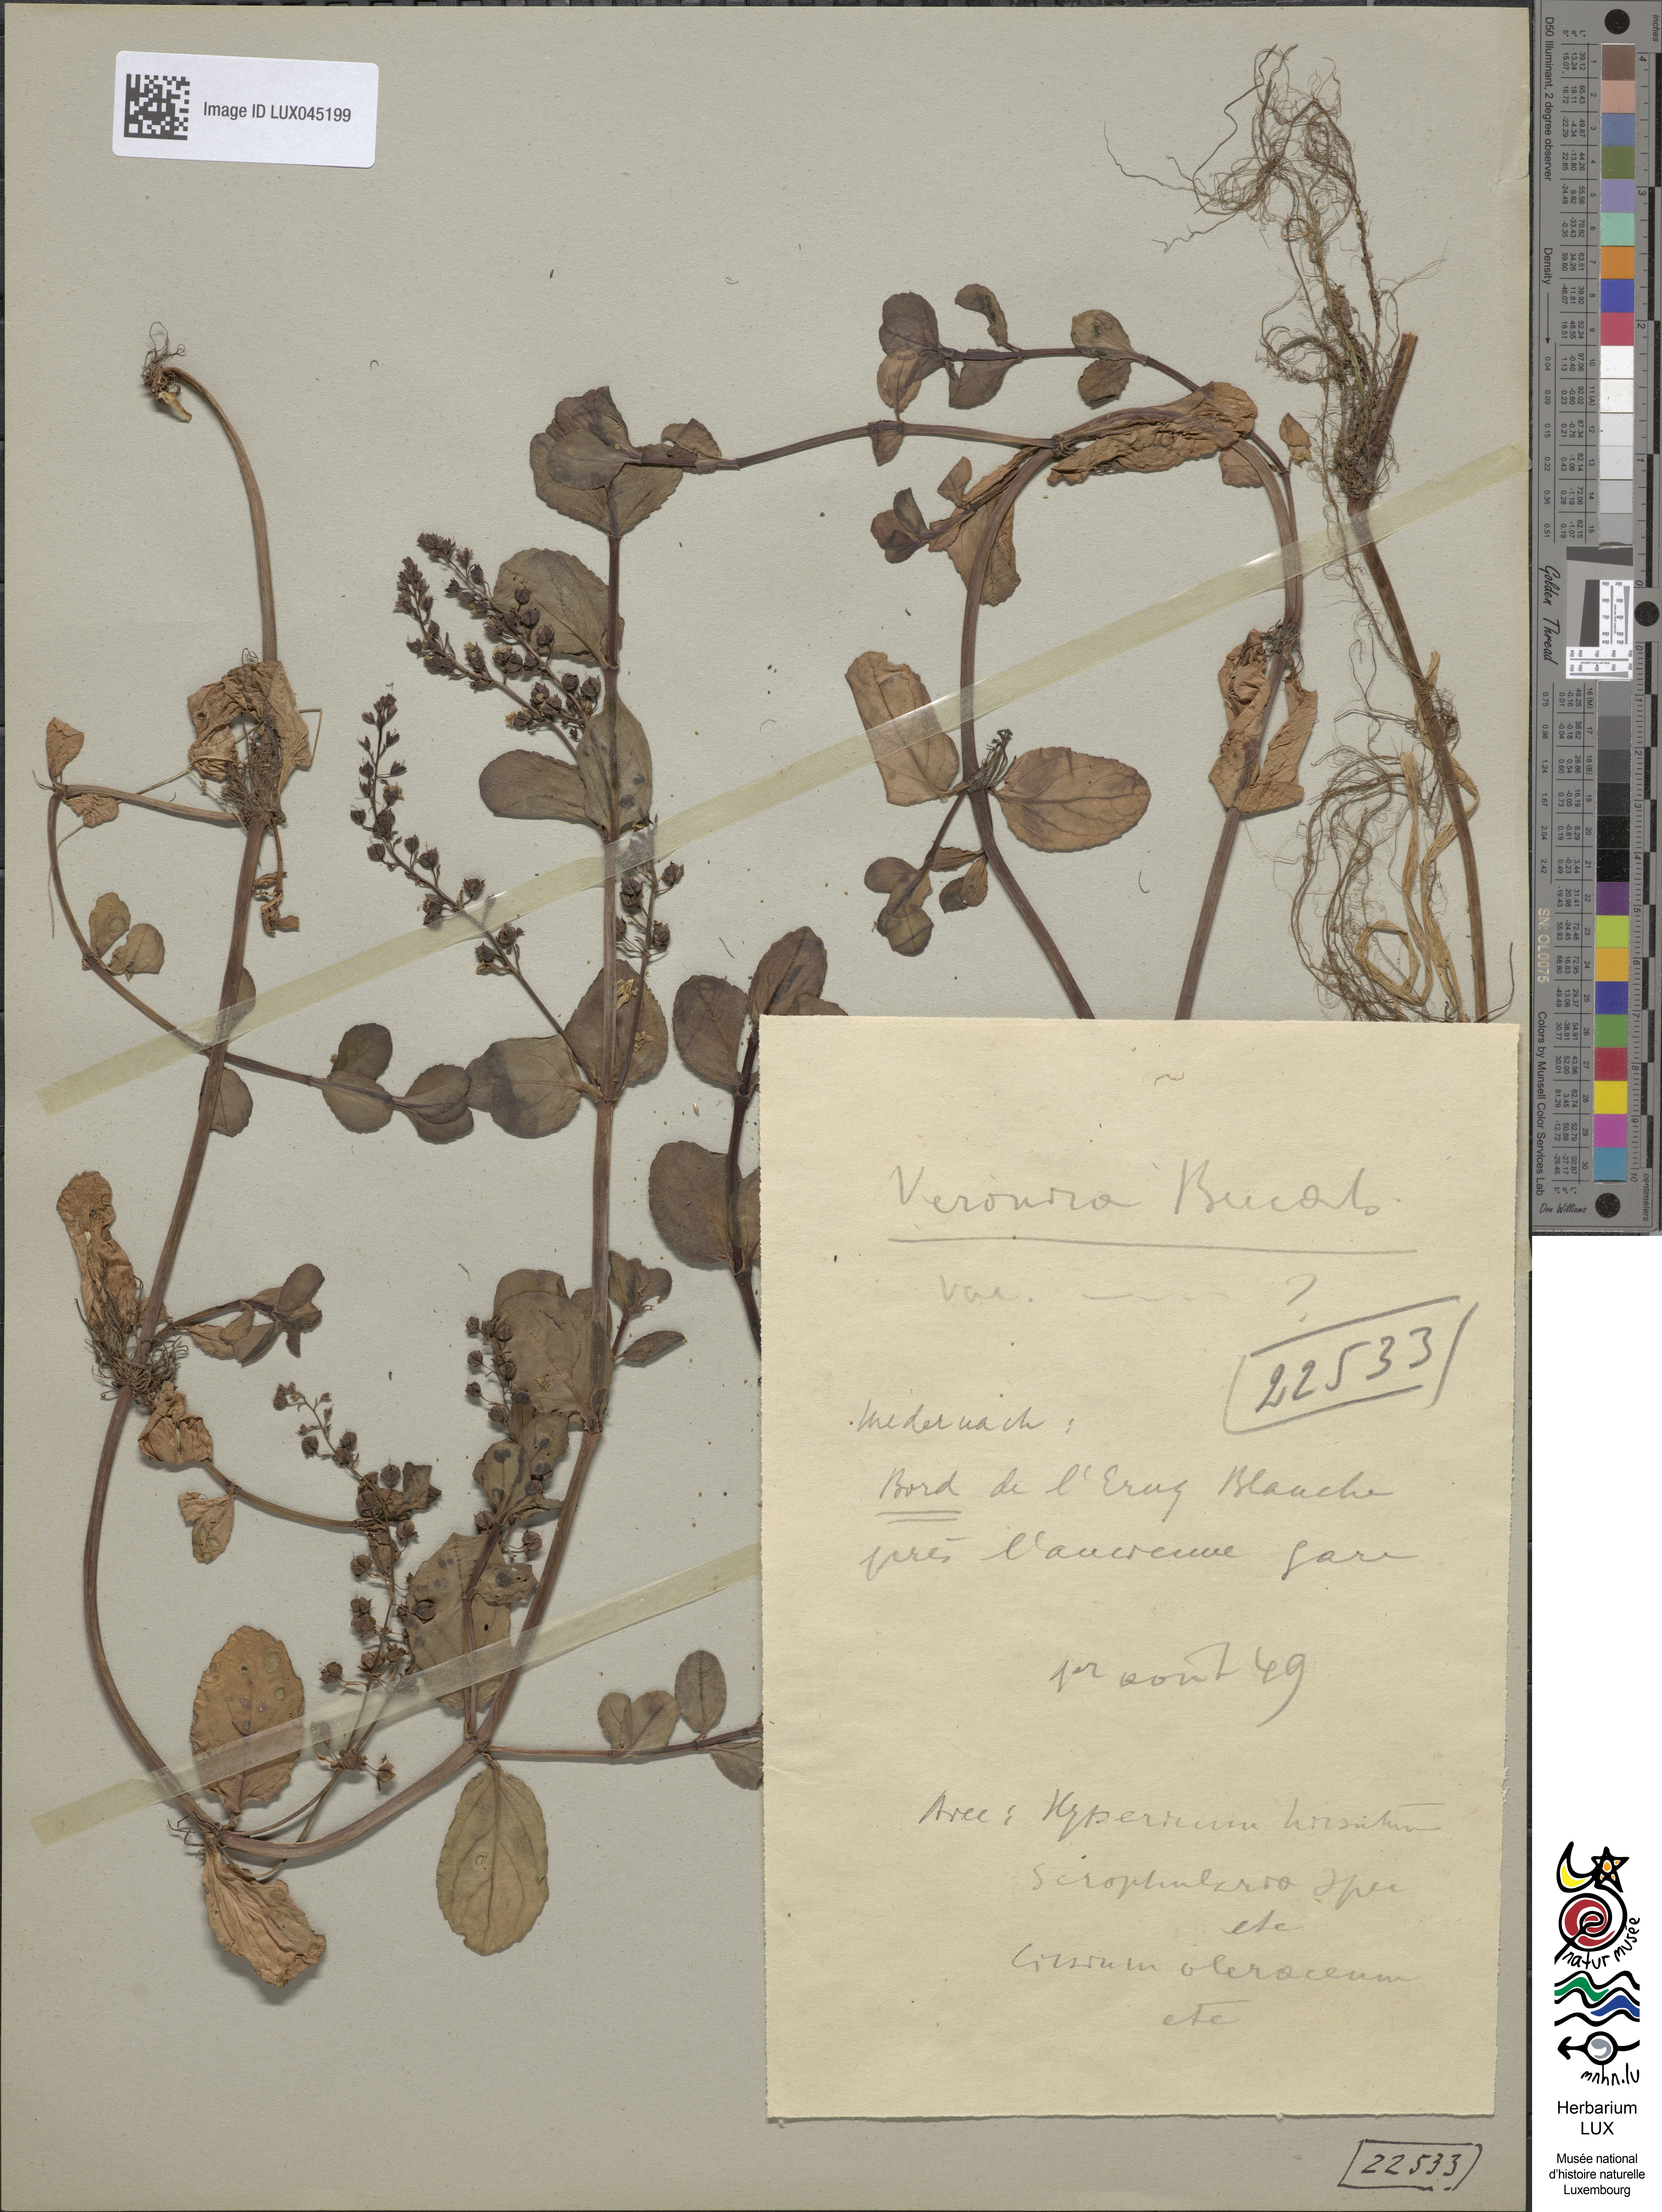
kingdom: Plantae
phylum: Tracheophyta
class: Magnoliopsida
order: Lamiales
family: Plantaginaceae
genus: Veronica
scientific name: Veronica beccabunga
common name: Brooklime
